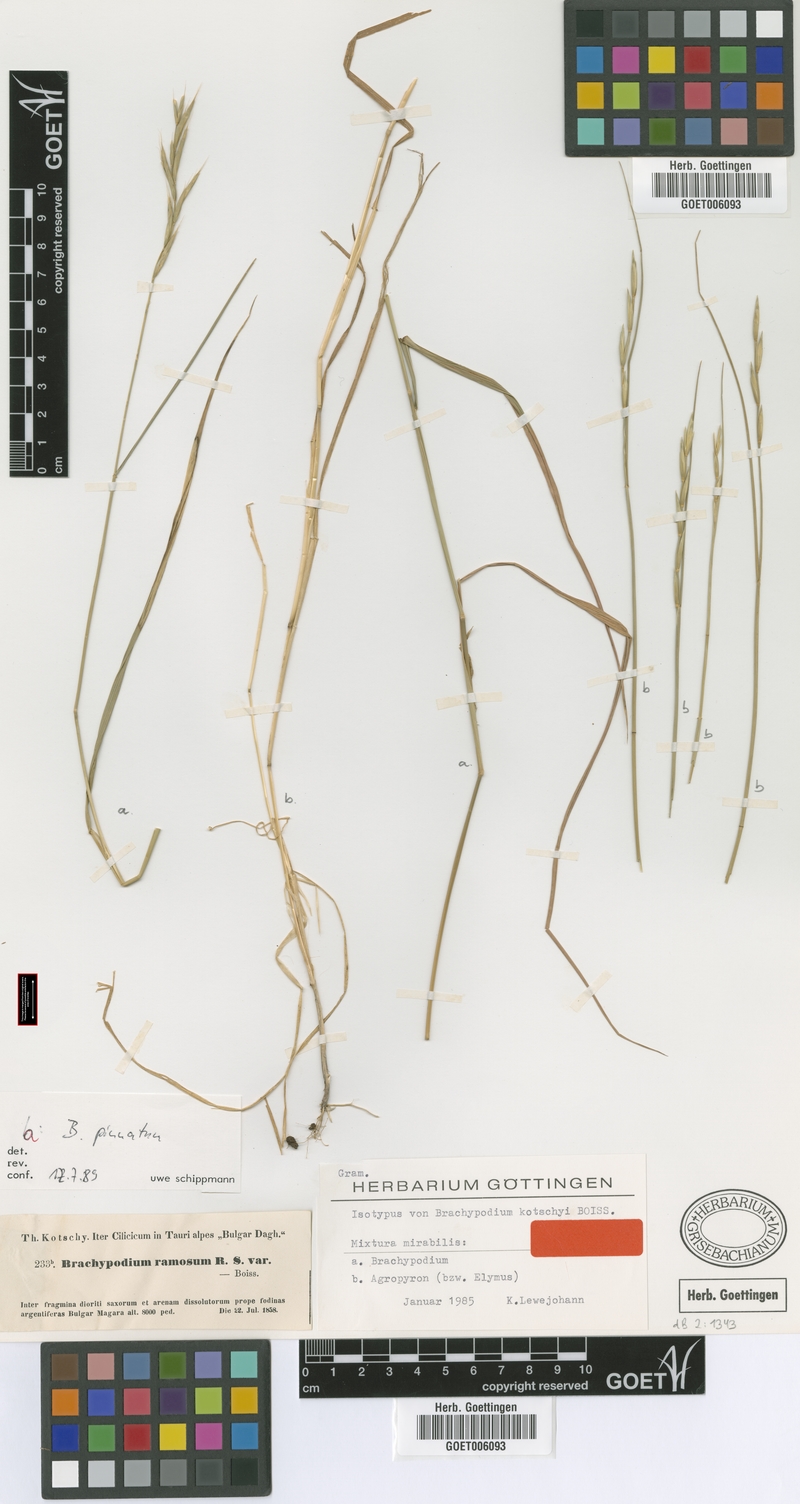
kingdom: Plantae
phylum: Tracheophyta
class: Liliopsida
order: Poales
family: Poaceae
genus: Brachypodium
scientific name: Brachypodium pinnatum
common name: Tor grass
